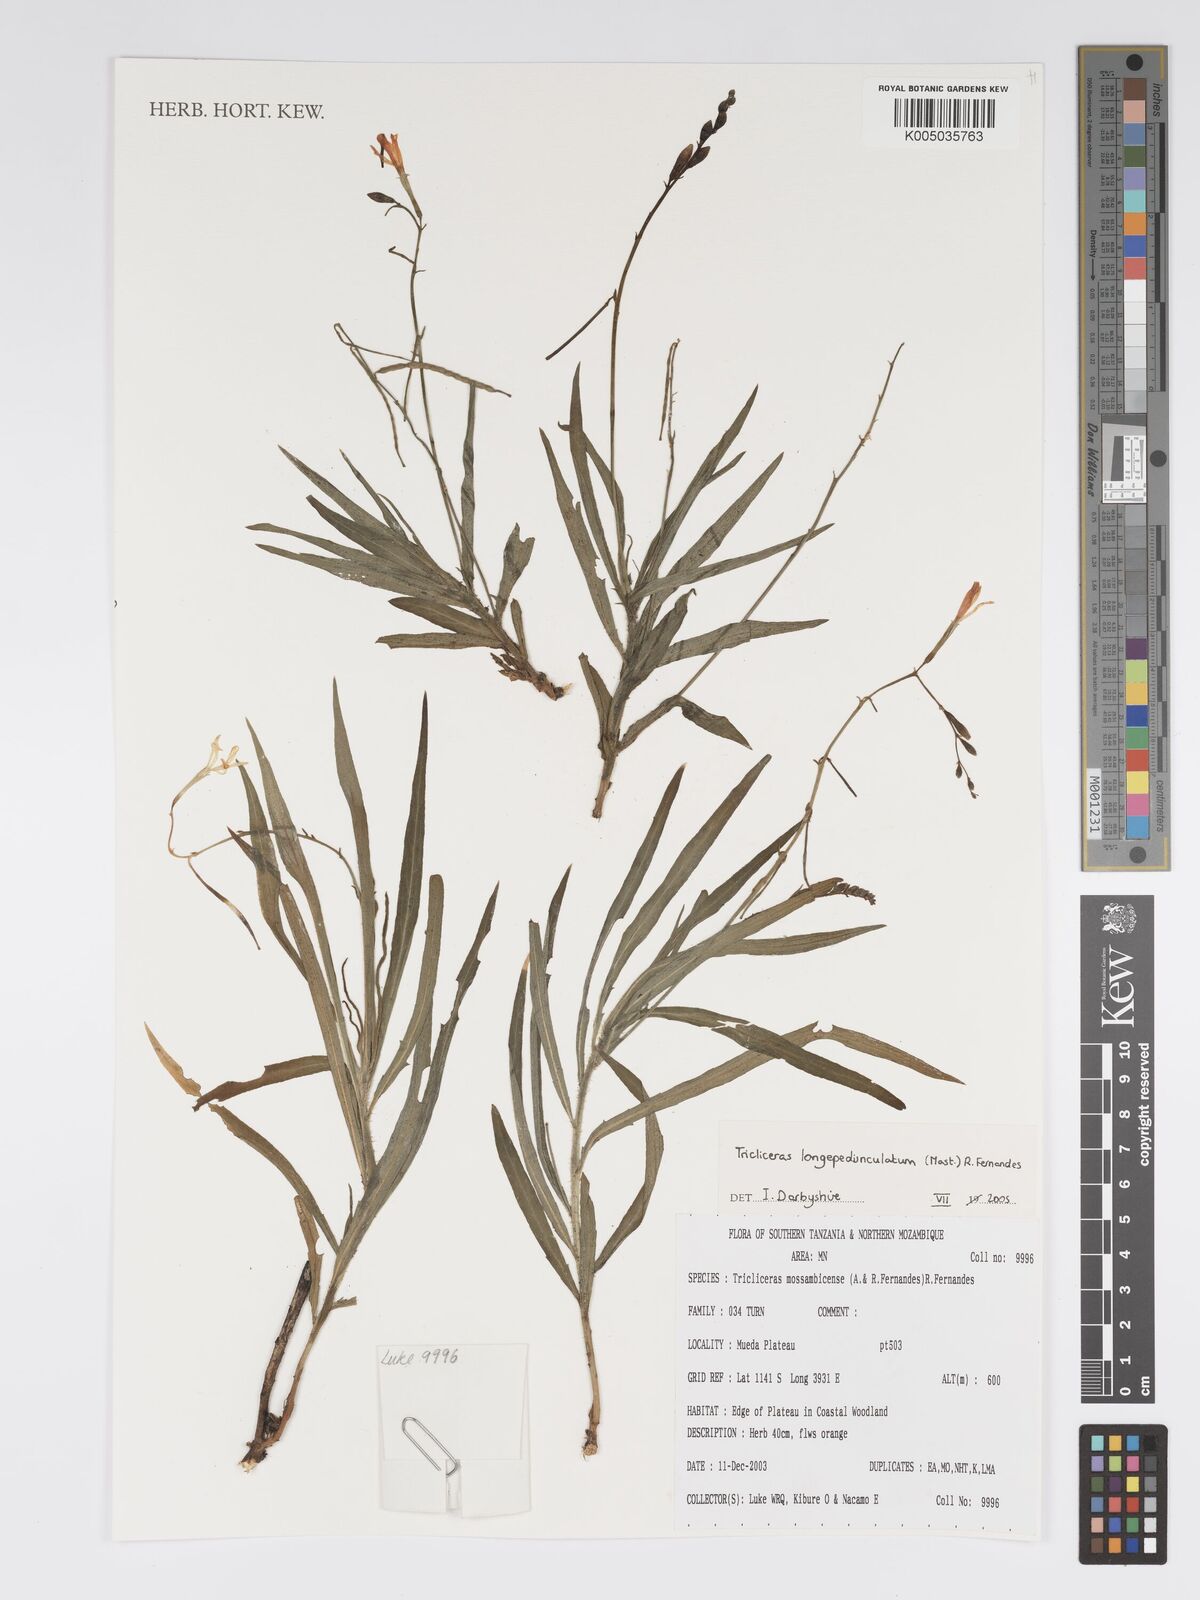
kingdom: Plantae
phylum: Tracheophyta
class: Magnoliopsida
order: Malpighiales
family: Turneraceae
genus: Tricliceras
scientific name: Tricliceras longepedunculatum
